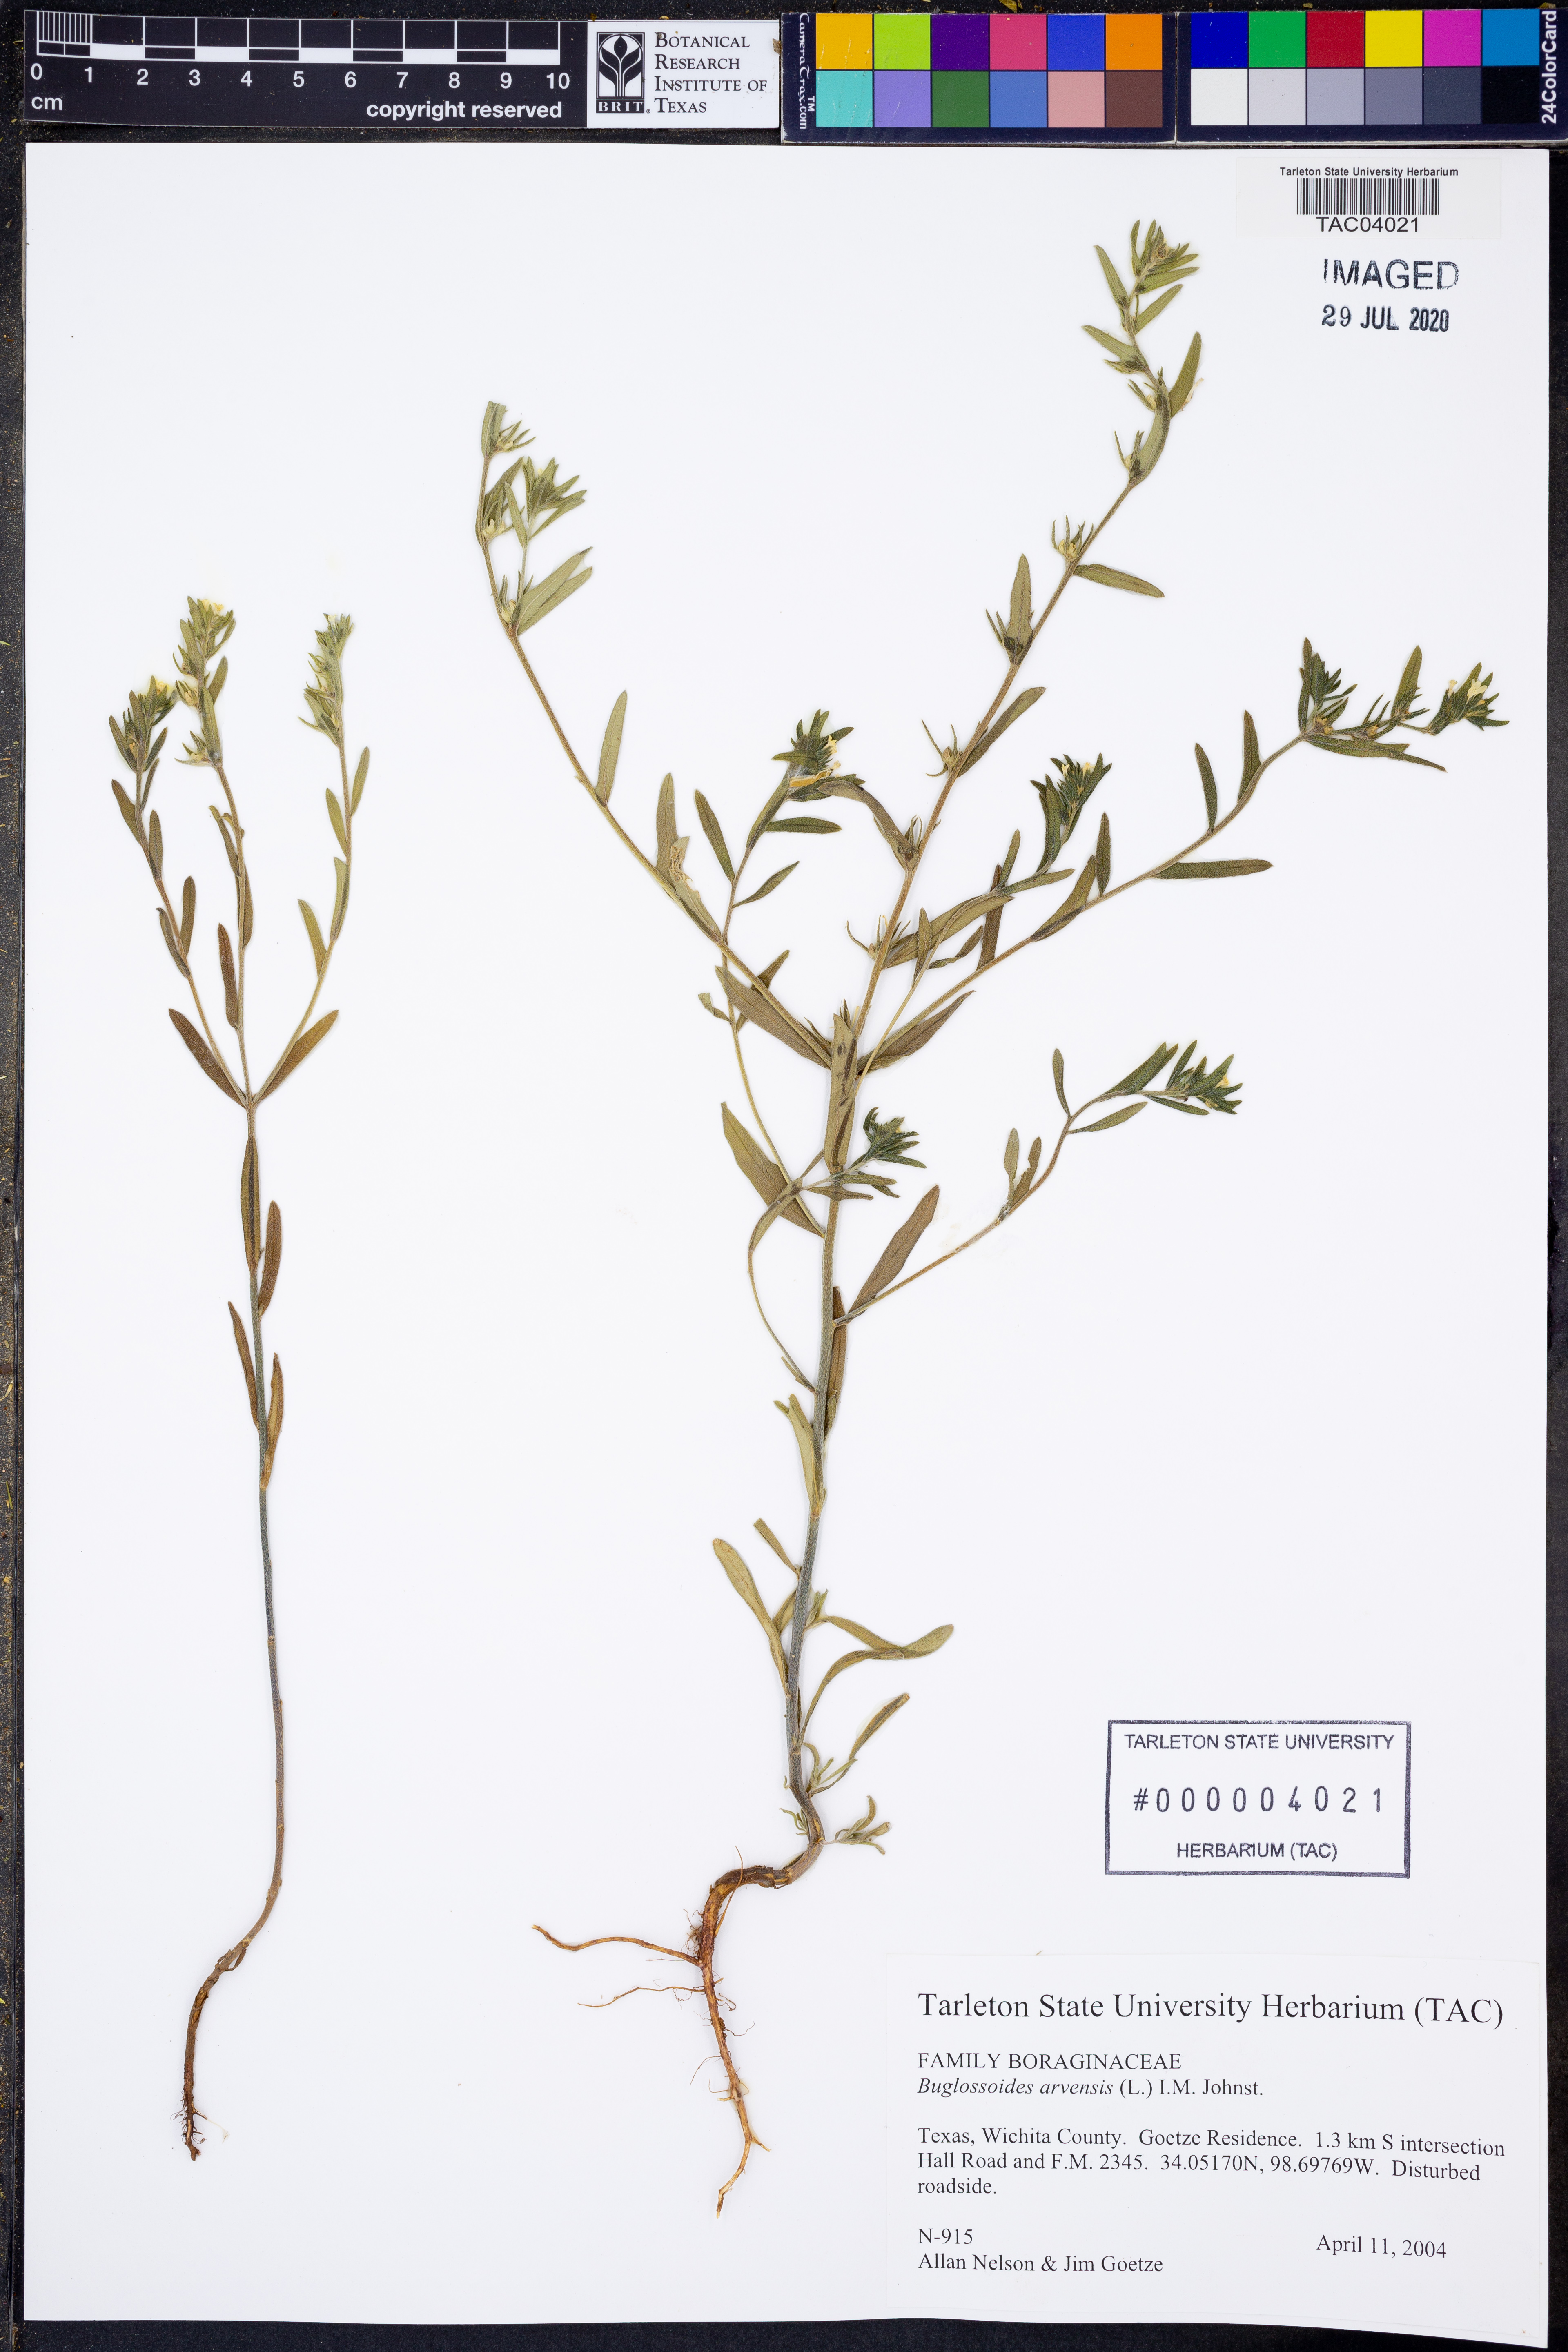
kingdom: Plantae
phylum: Tracheophyta
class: Magnoliopsida
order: Boraginales
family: Boraginaceae
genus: Buglossoides
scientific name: Buglossoides arvensis
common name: Corn gromwell
